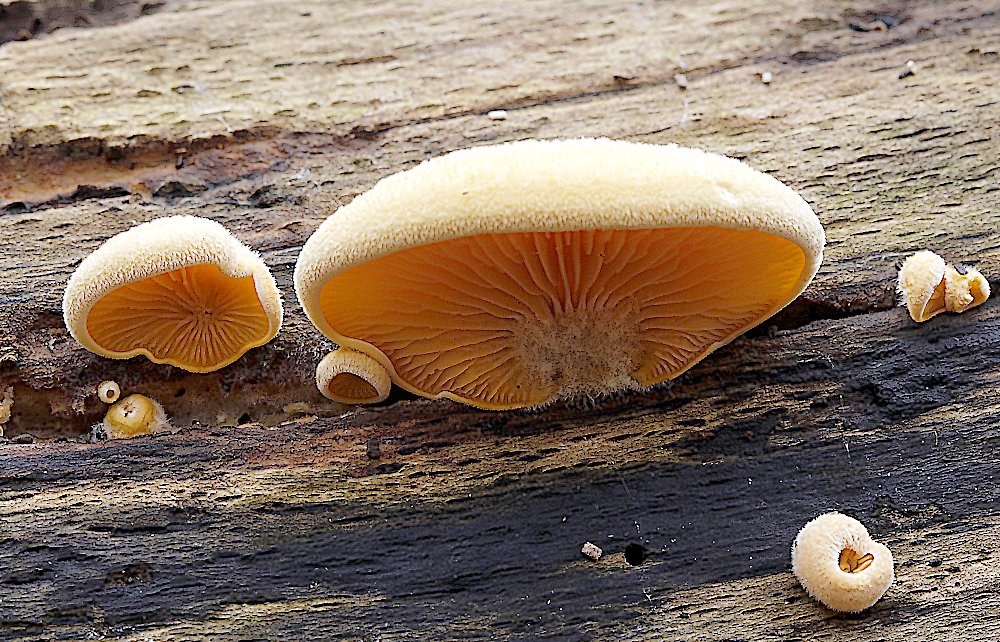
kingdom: Fungi
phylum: Basidiomycota
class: Agaricomycetes
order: Agaricales
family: Phyllotopsidaceae
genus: Phyllotopsis
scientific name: Phyllotopsis nidulans
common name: okkerblad
